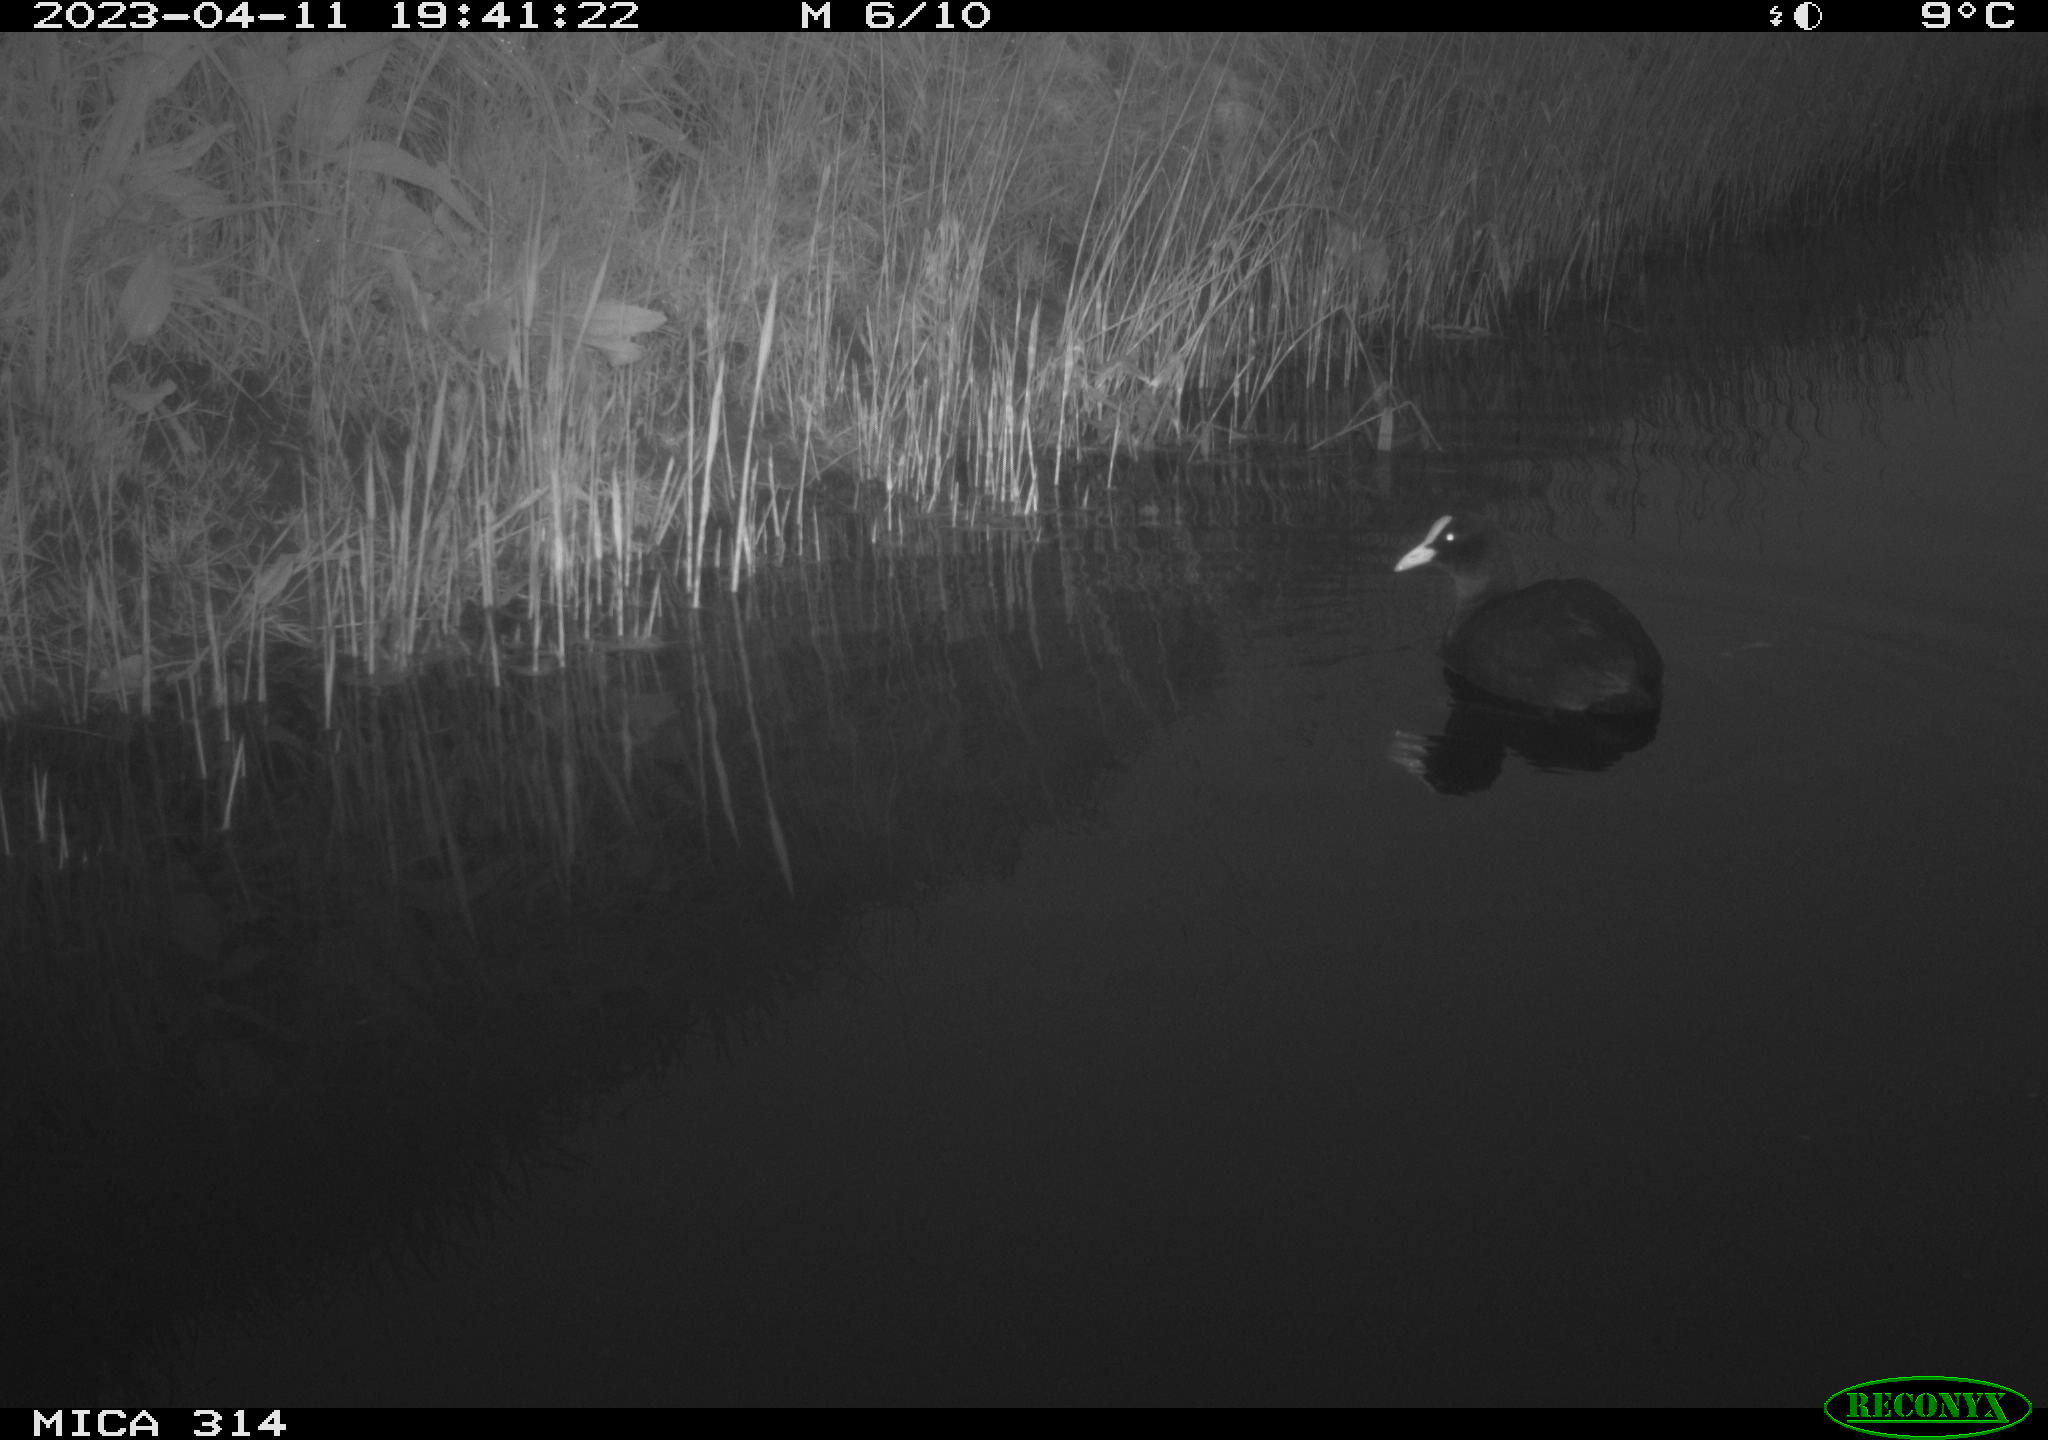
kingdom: Animalia
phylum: Chordata
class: Aves
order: Gruiformes
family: Rallidae
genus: Fulica
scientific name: Fulica atra
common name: Eurasian coot
